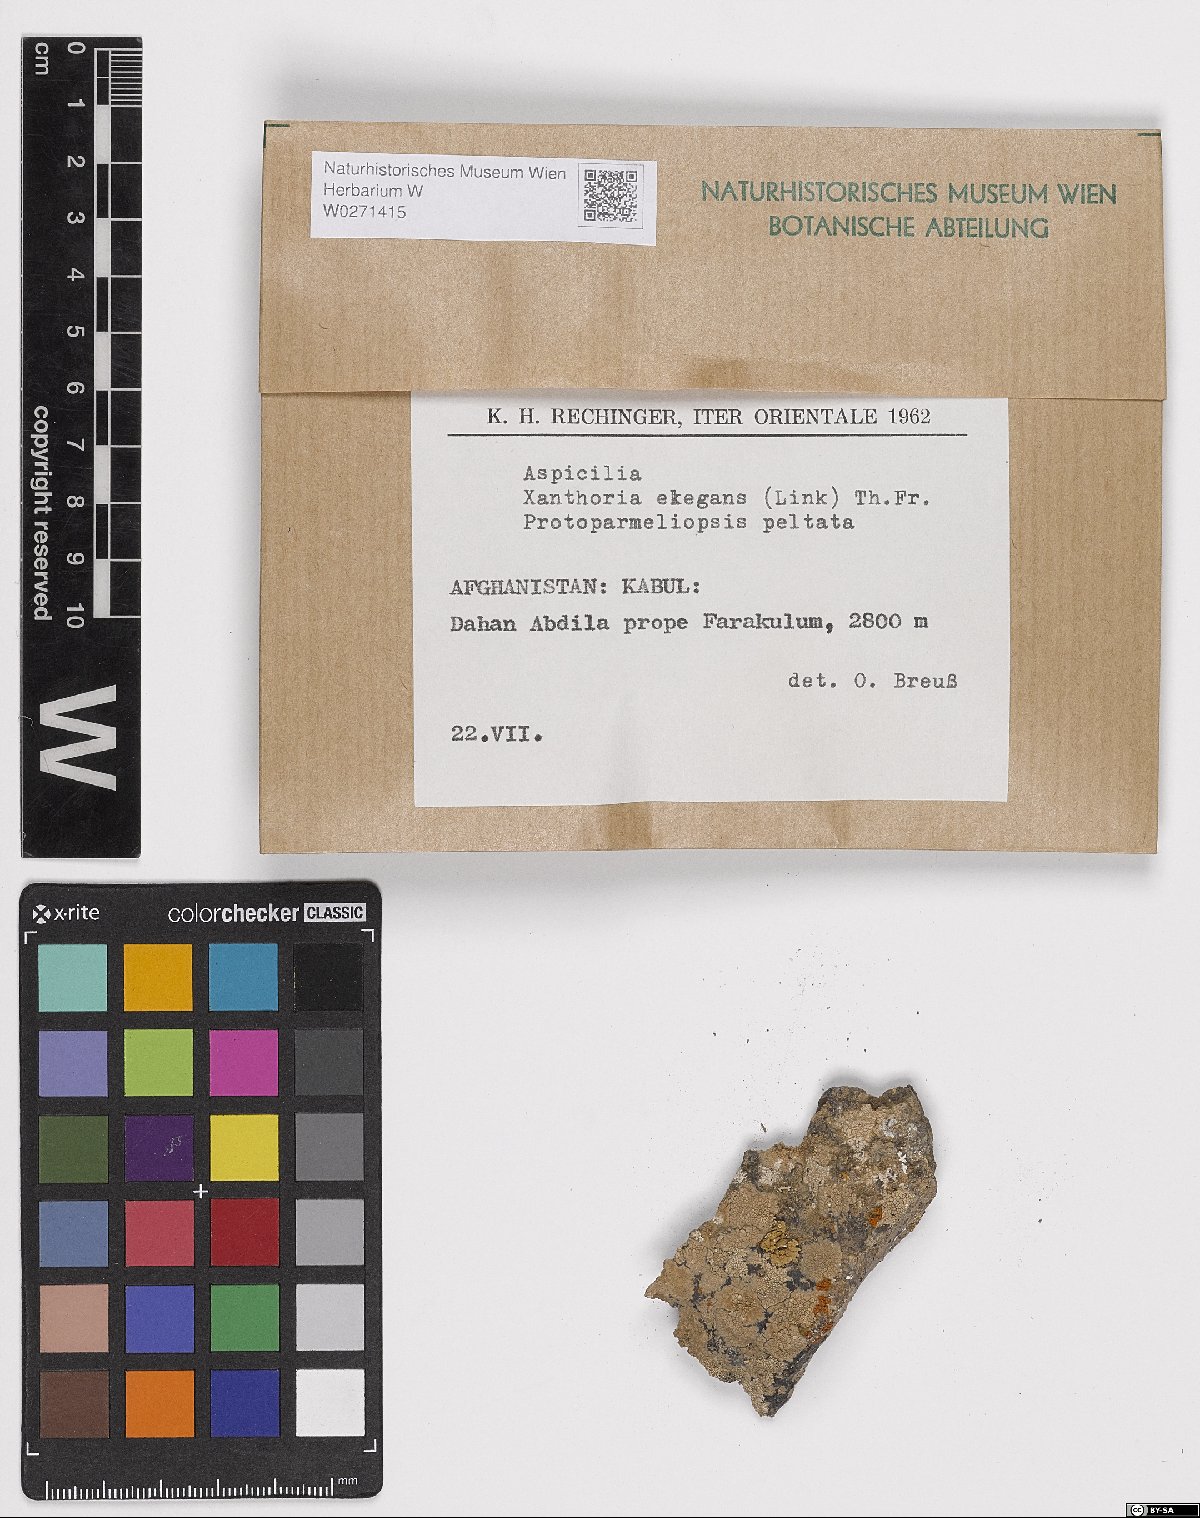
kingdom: Fungi
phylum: Ascomycota
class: Lecanoromycetes
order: Hymeneliales
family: Hymeneliaceae
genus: Aspicilia
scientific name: Aspicilia
